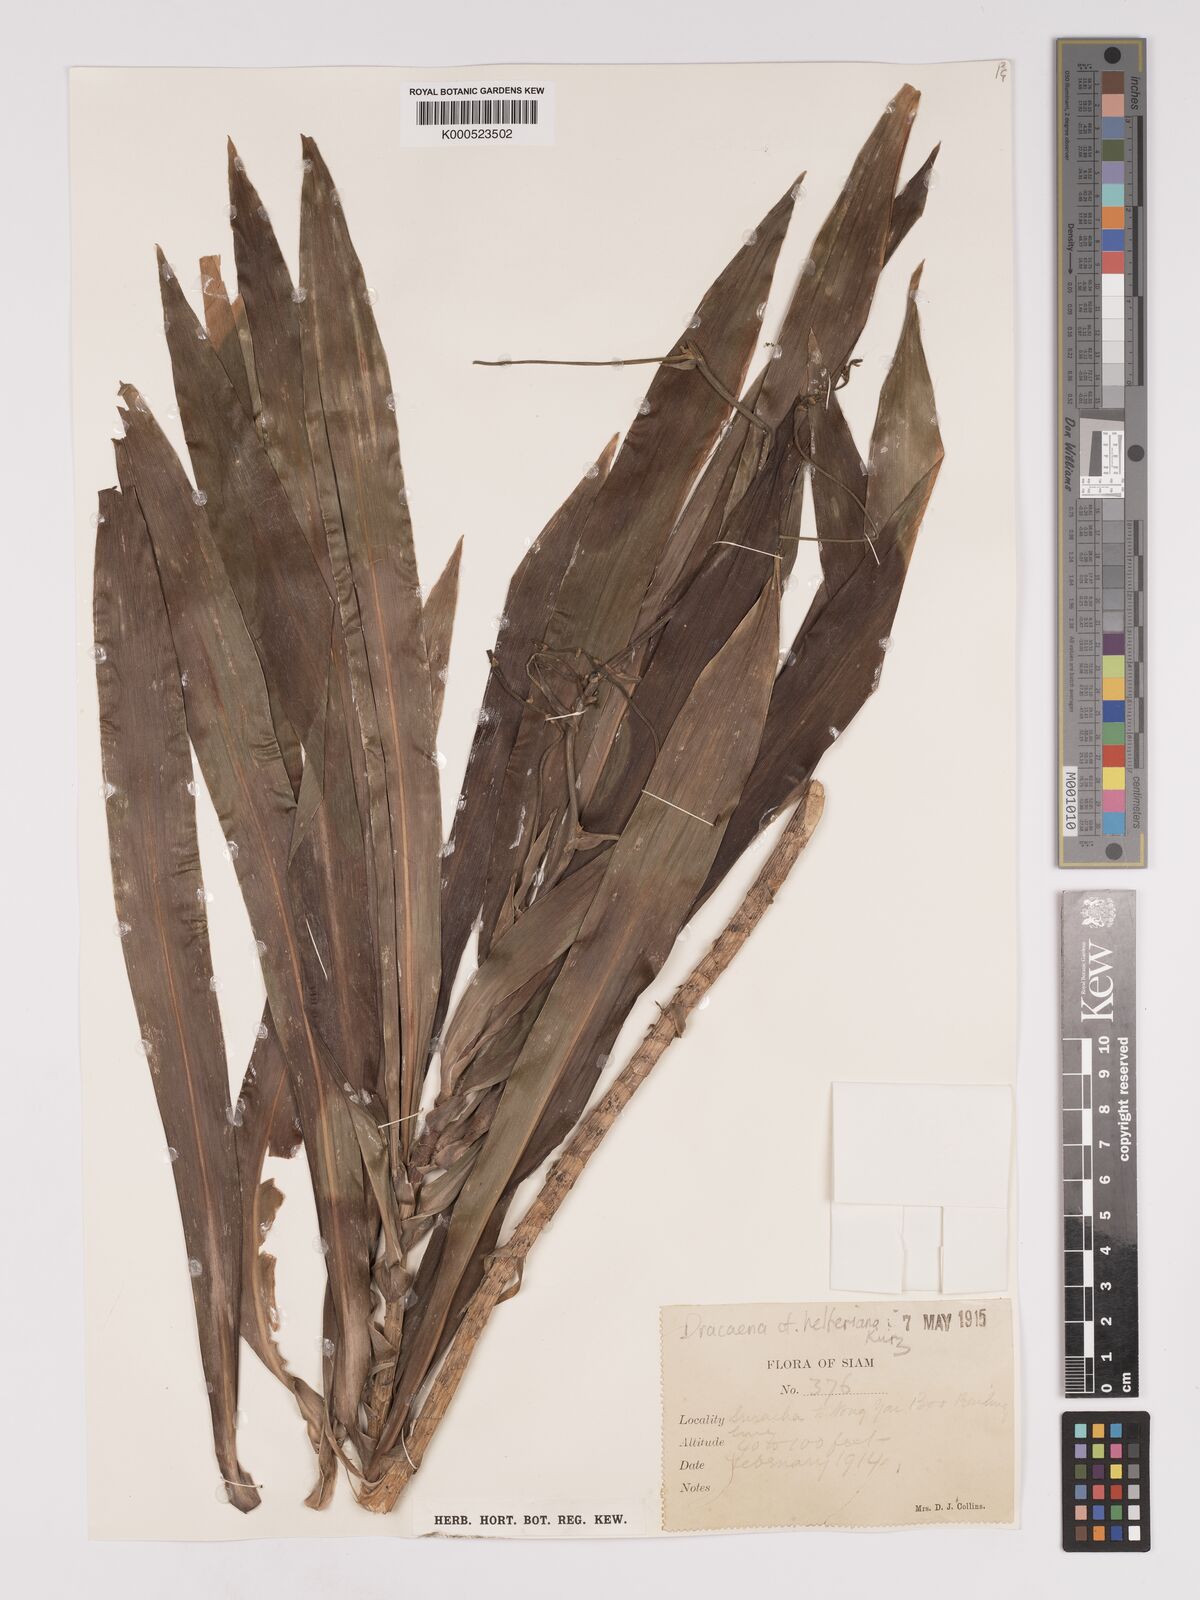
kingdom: Plantae
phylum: Tracheophyta
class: Liliopsida
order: Asparagales
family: Asparagaceae
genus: Dracaena
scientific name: Dracaena griffithii
